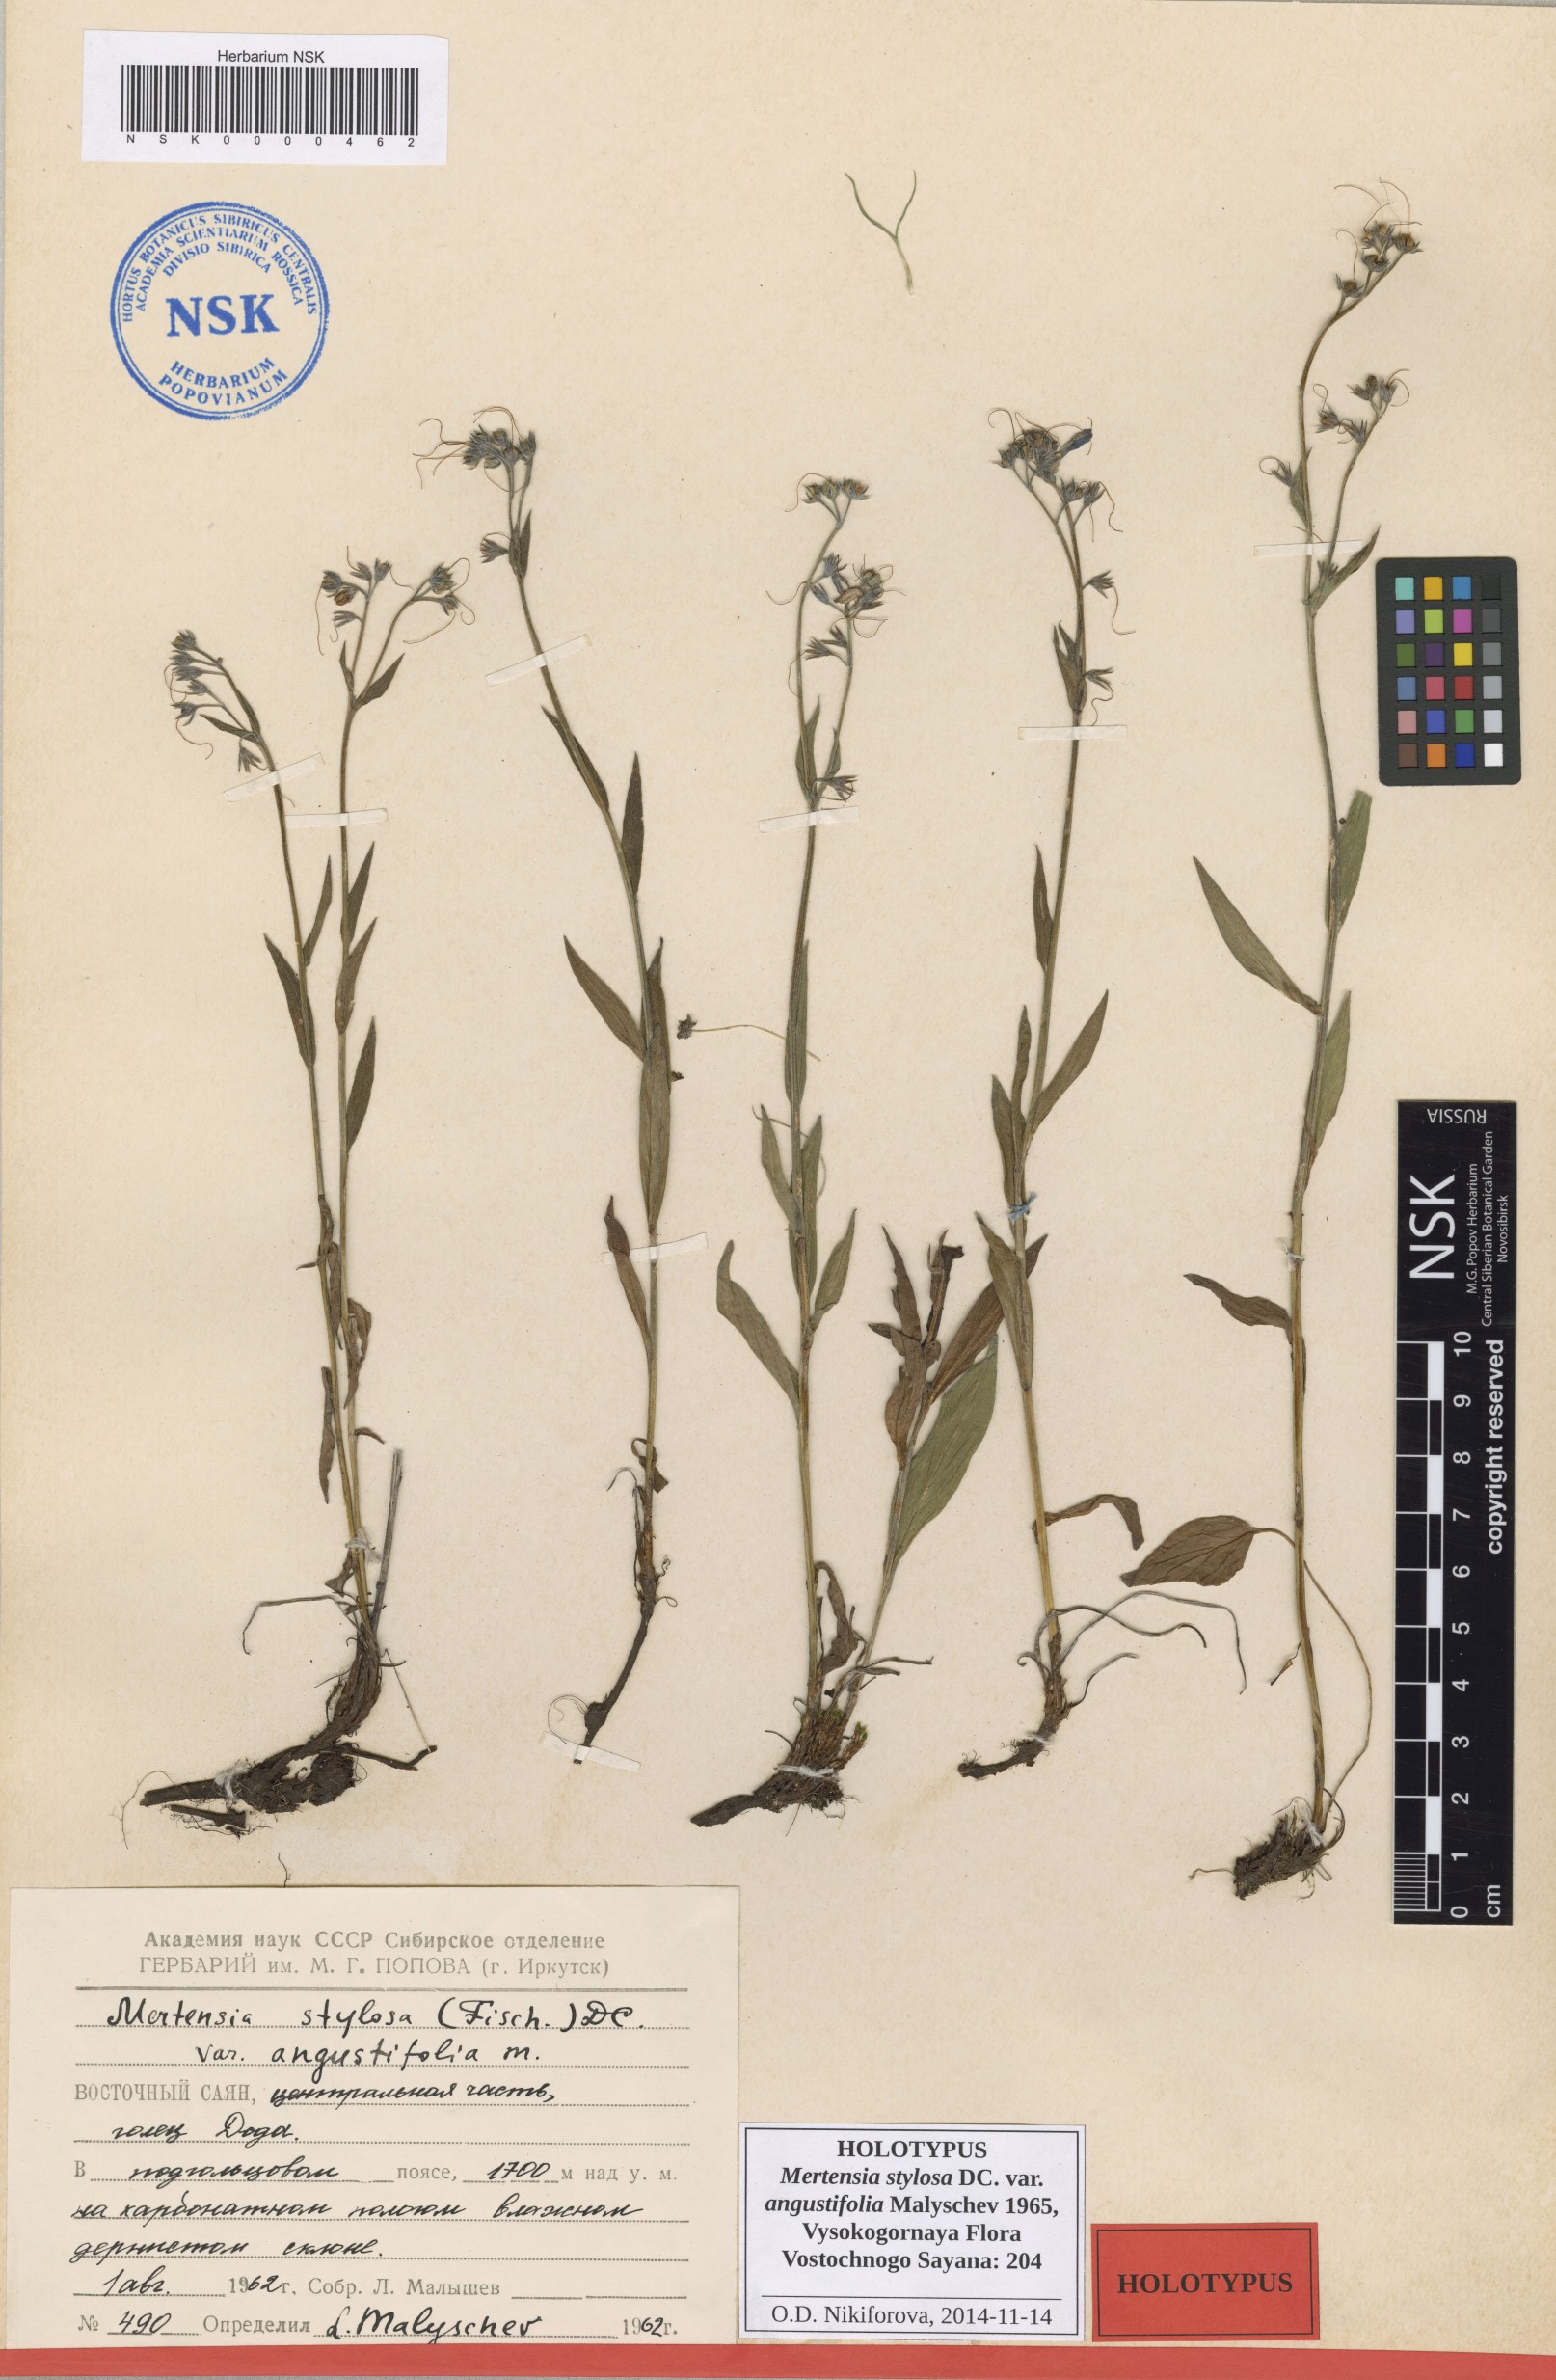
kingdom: Plantae
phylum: Tracheophyta
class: Magnoliopsida
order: Boraginales
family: Boraginaceae
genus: Mertensia
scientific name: Mertensia stylosa
